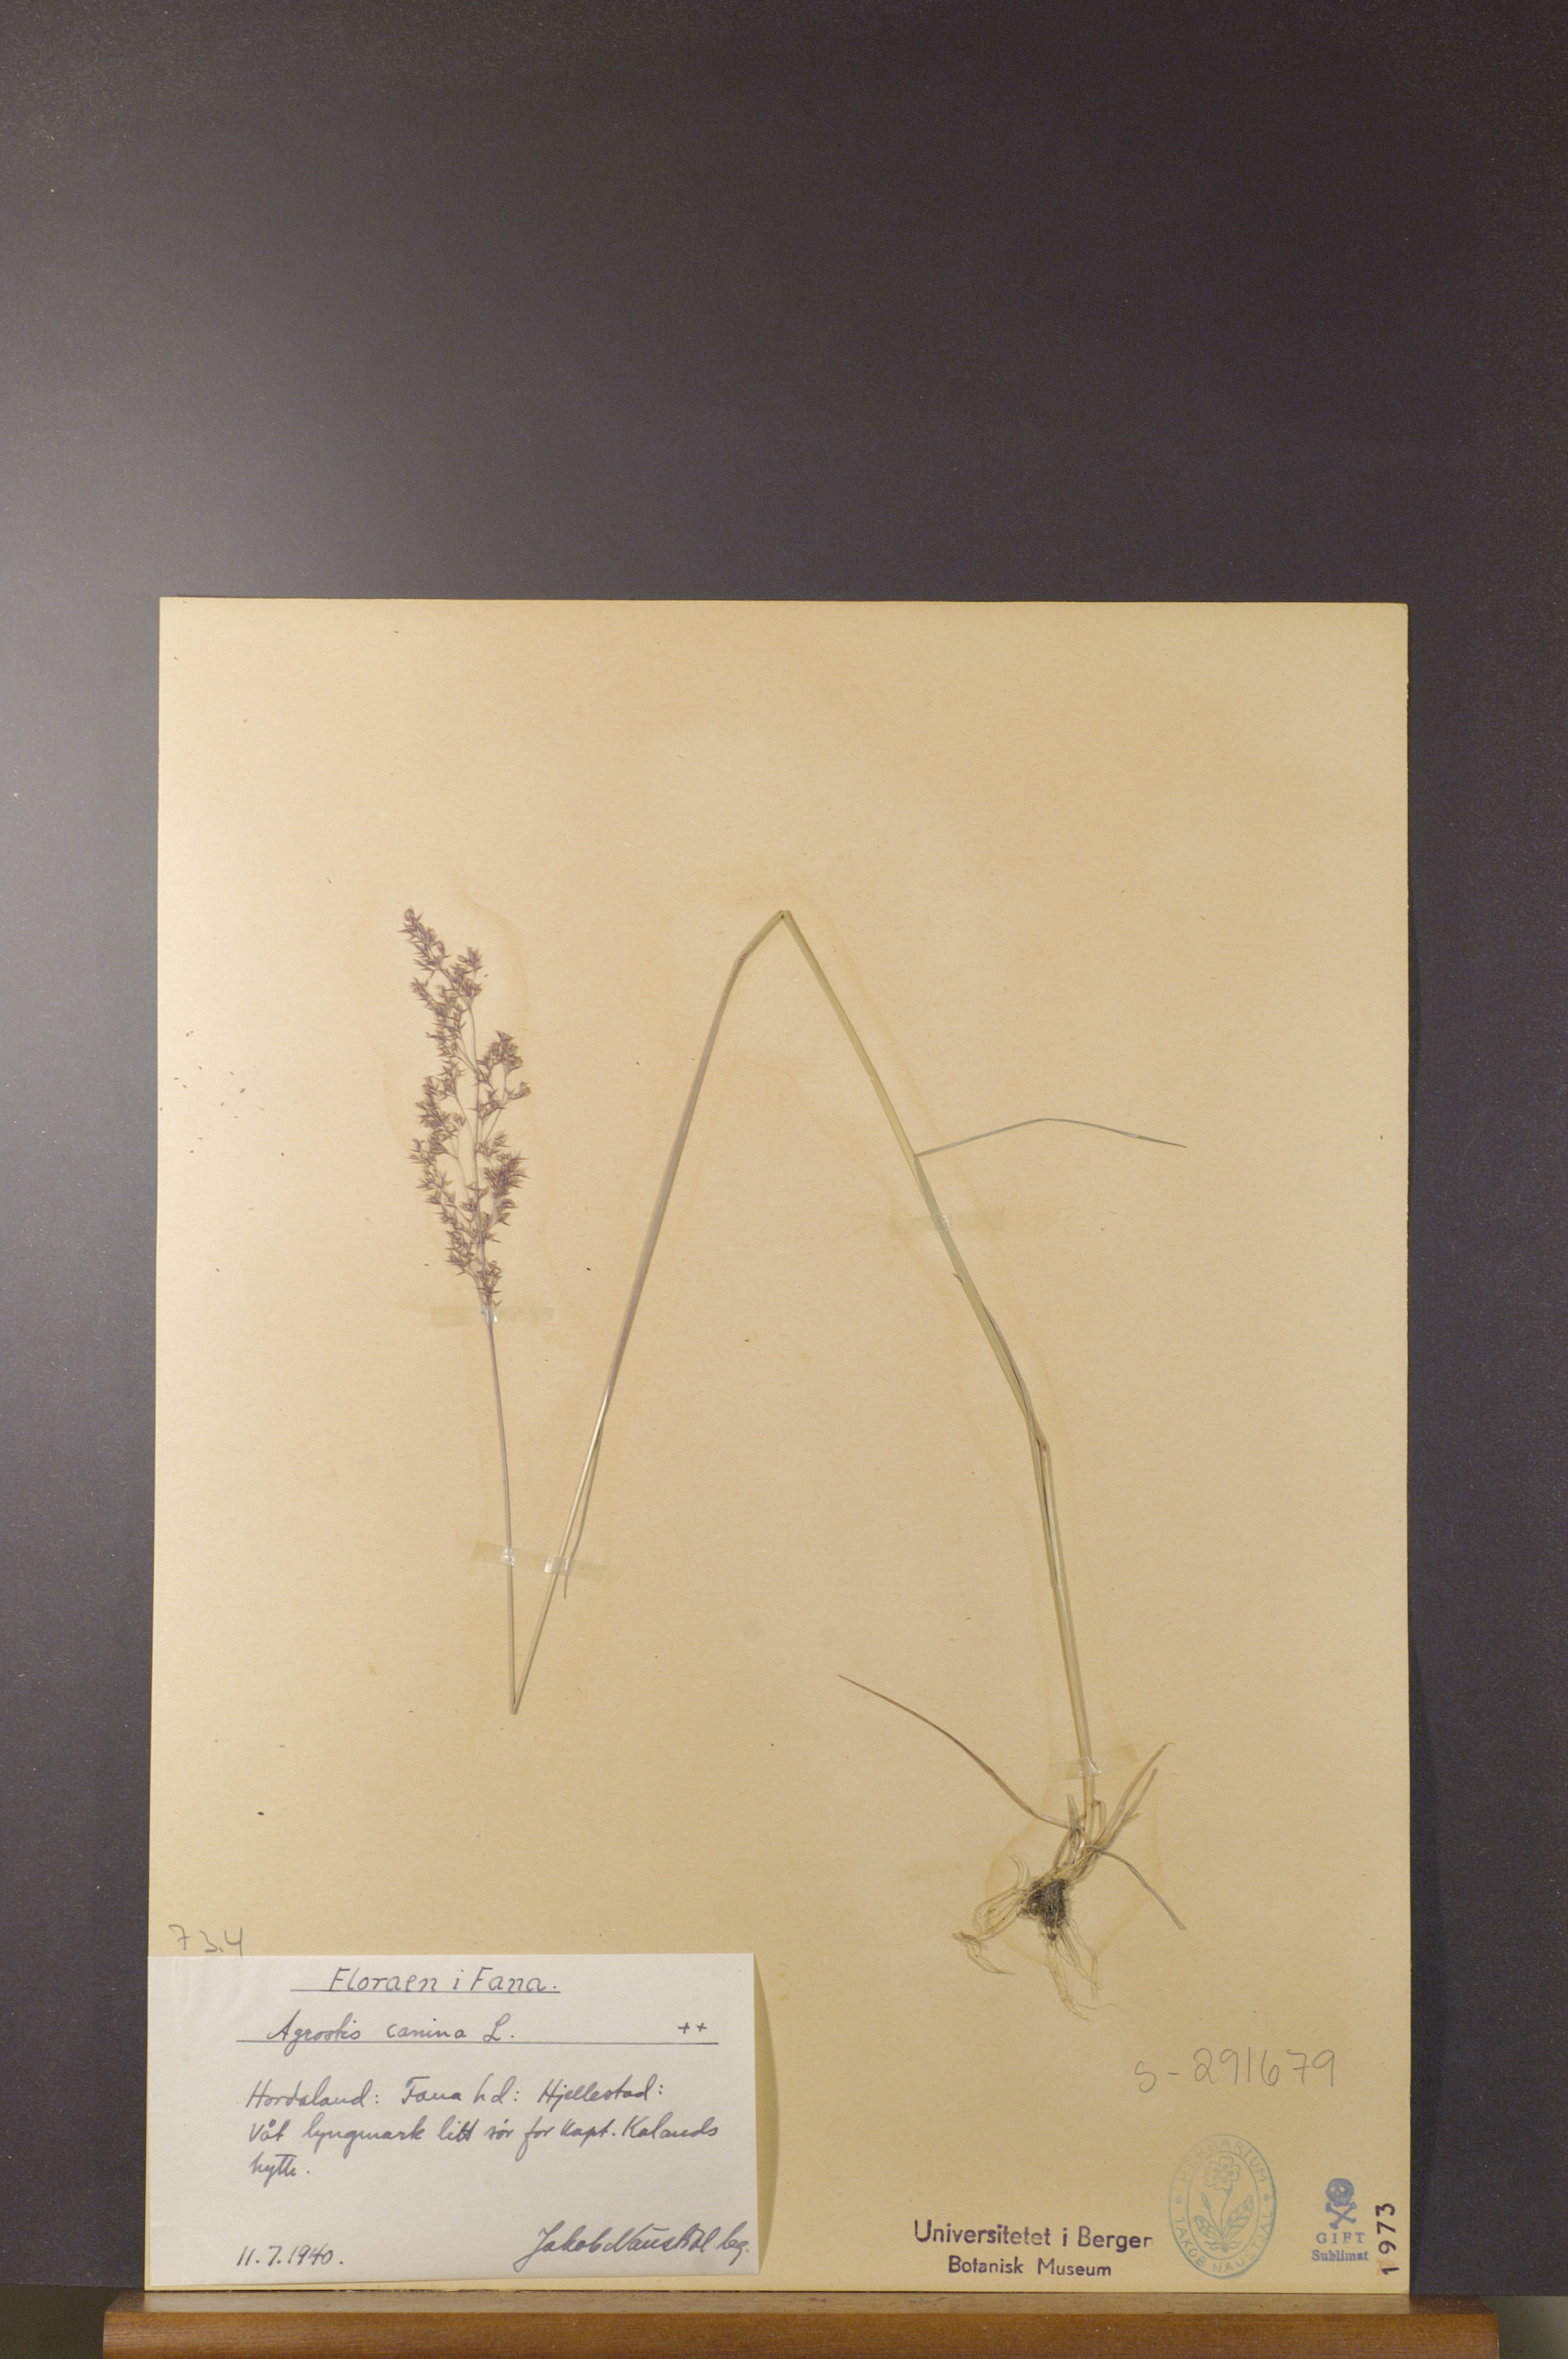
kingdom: Plantae
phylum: Tracheophyta
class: Liliopsida
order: Poales
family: Poaceae
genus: Agrostis
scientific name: Agrostis canina
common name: Velvet bent
